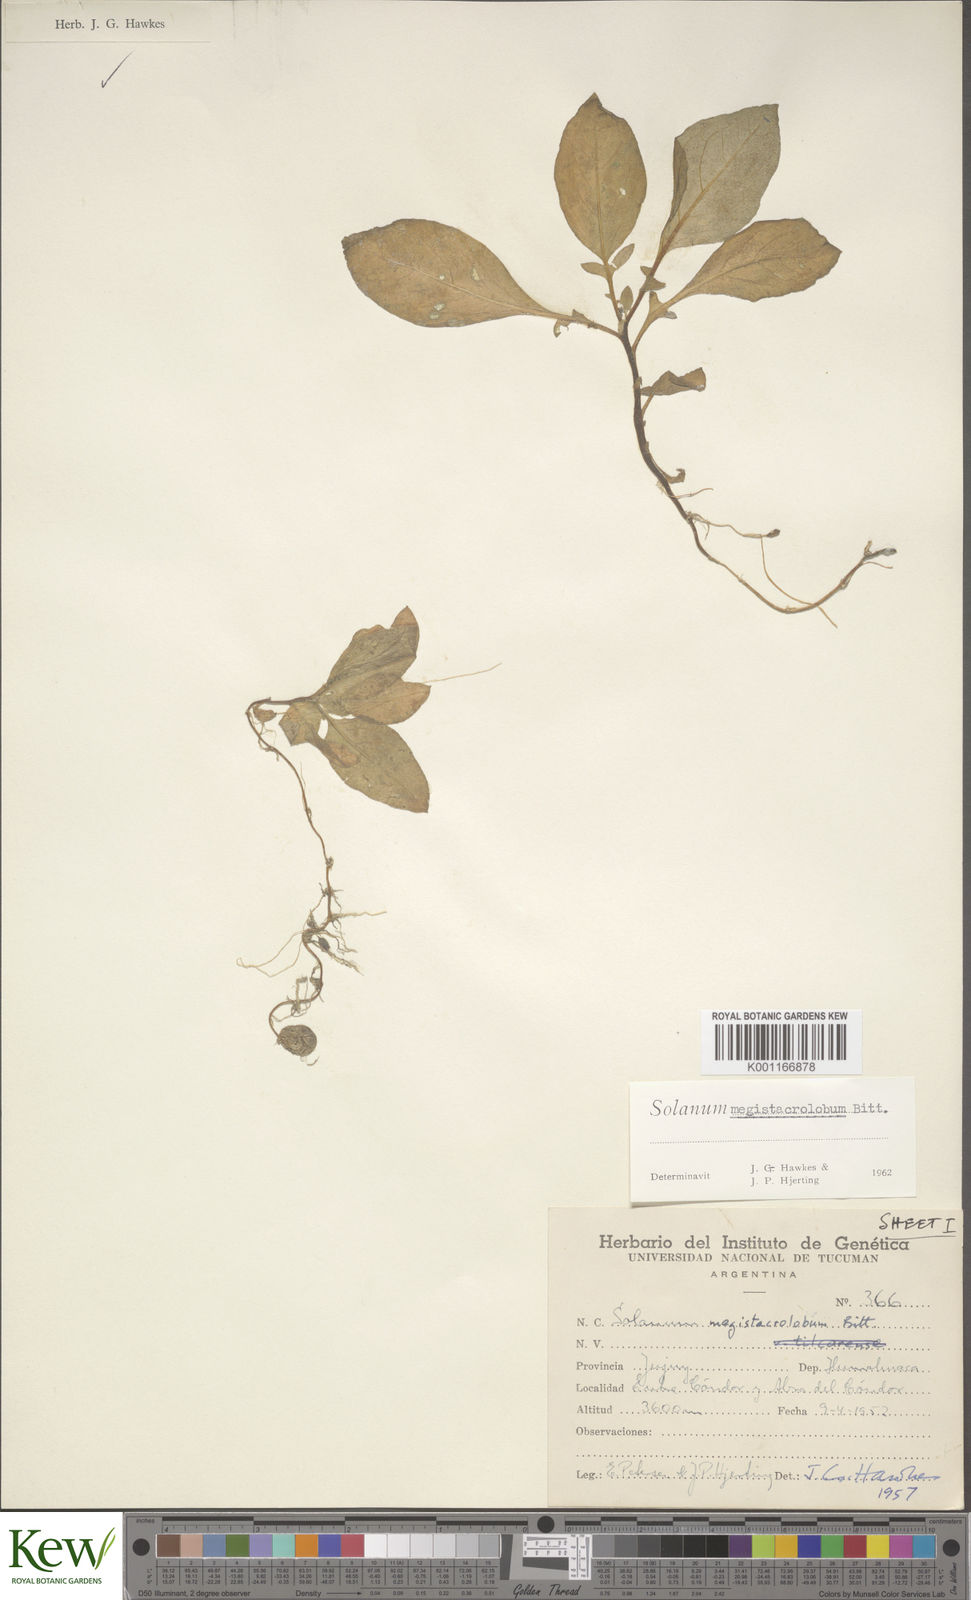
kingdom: Plantae
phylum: Tracheophyta
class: Magnoliopsida
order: Solanales
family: Solanaceae
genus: Solanum
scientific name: Solanum boliviense
